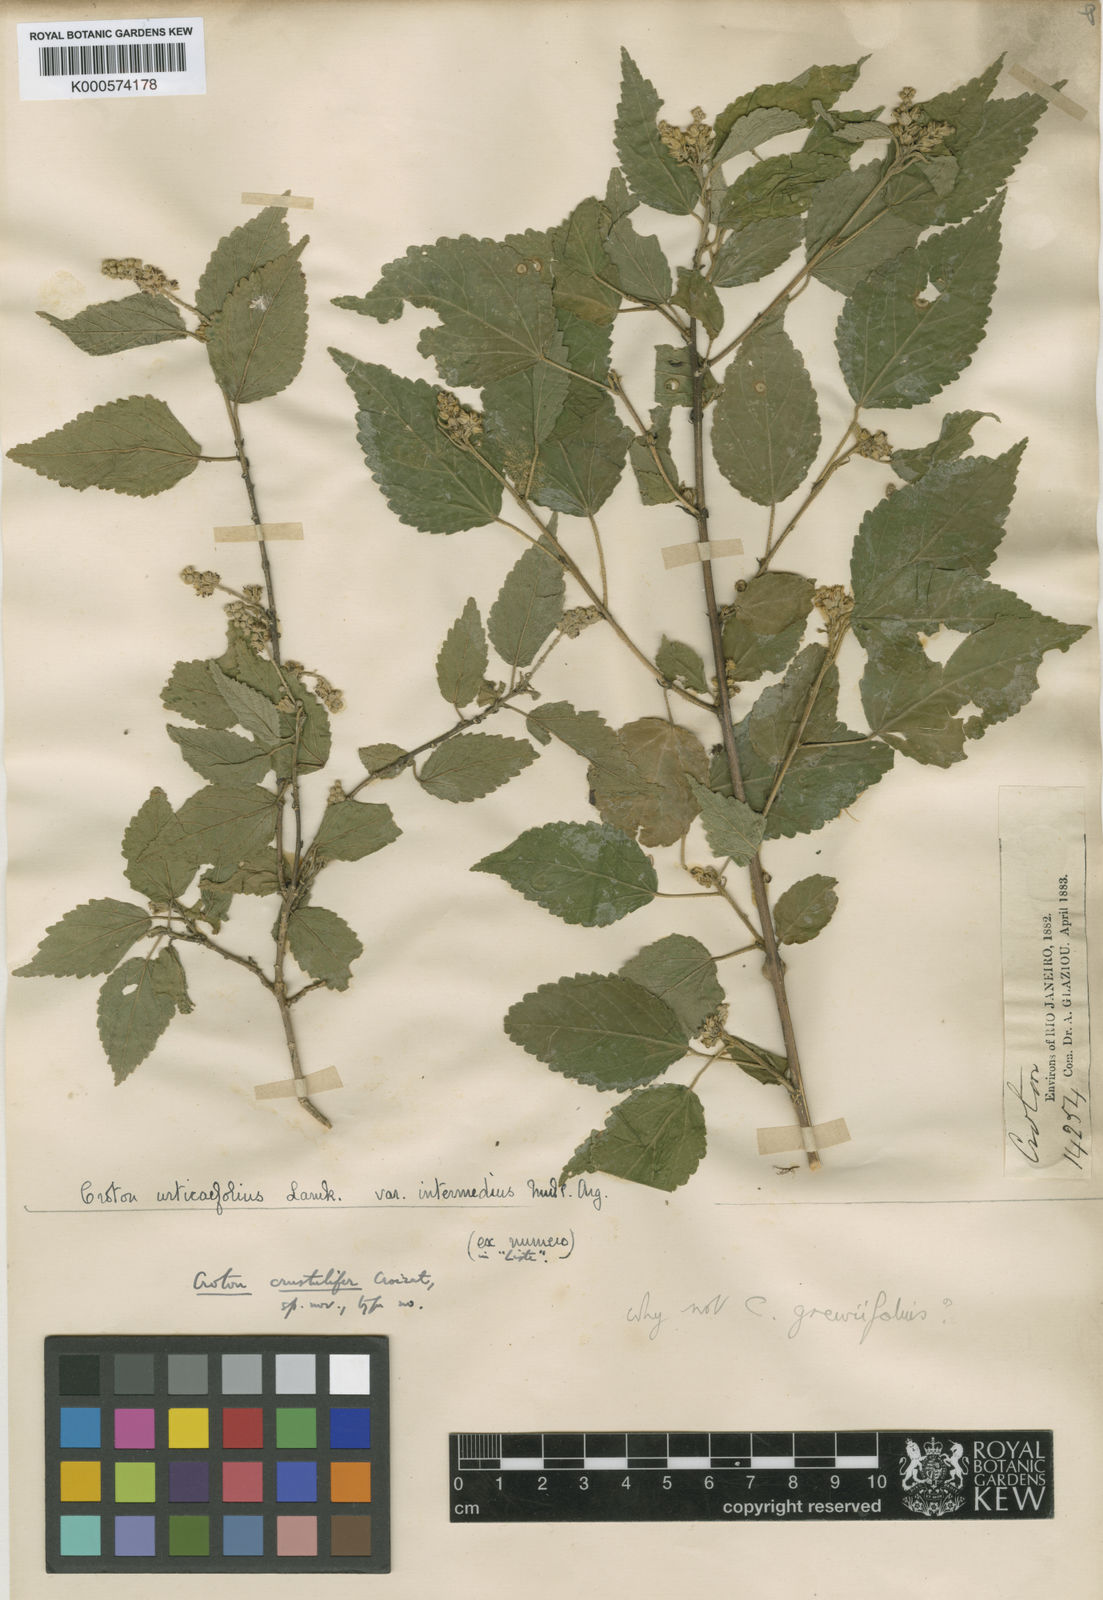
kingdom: Plantae
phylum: Tracheophyta
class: Magnoliopsida
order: Malpighiales
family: Euphorbiaceae
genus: Croton
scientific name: Croton crustulifer
